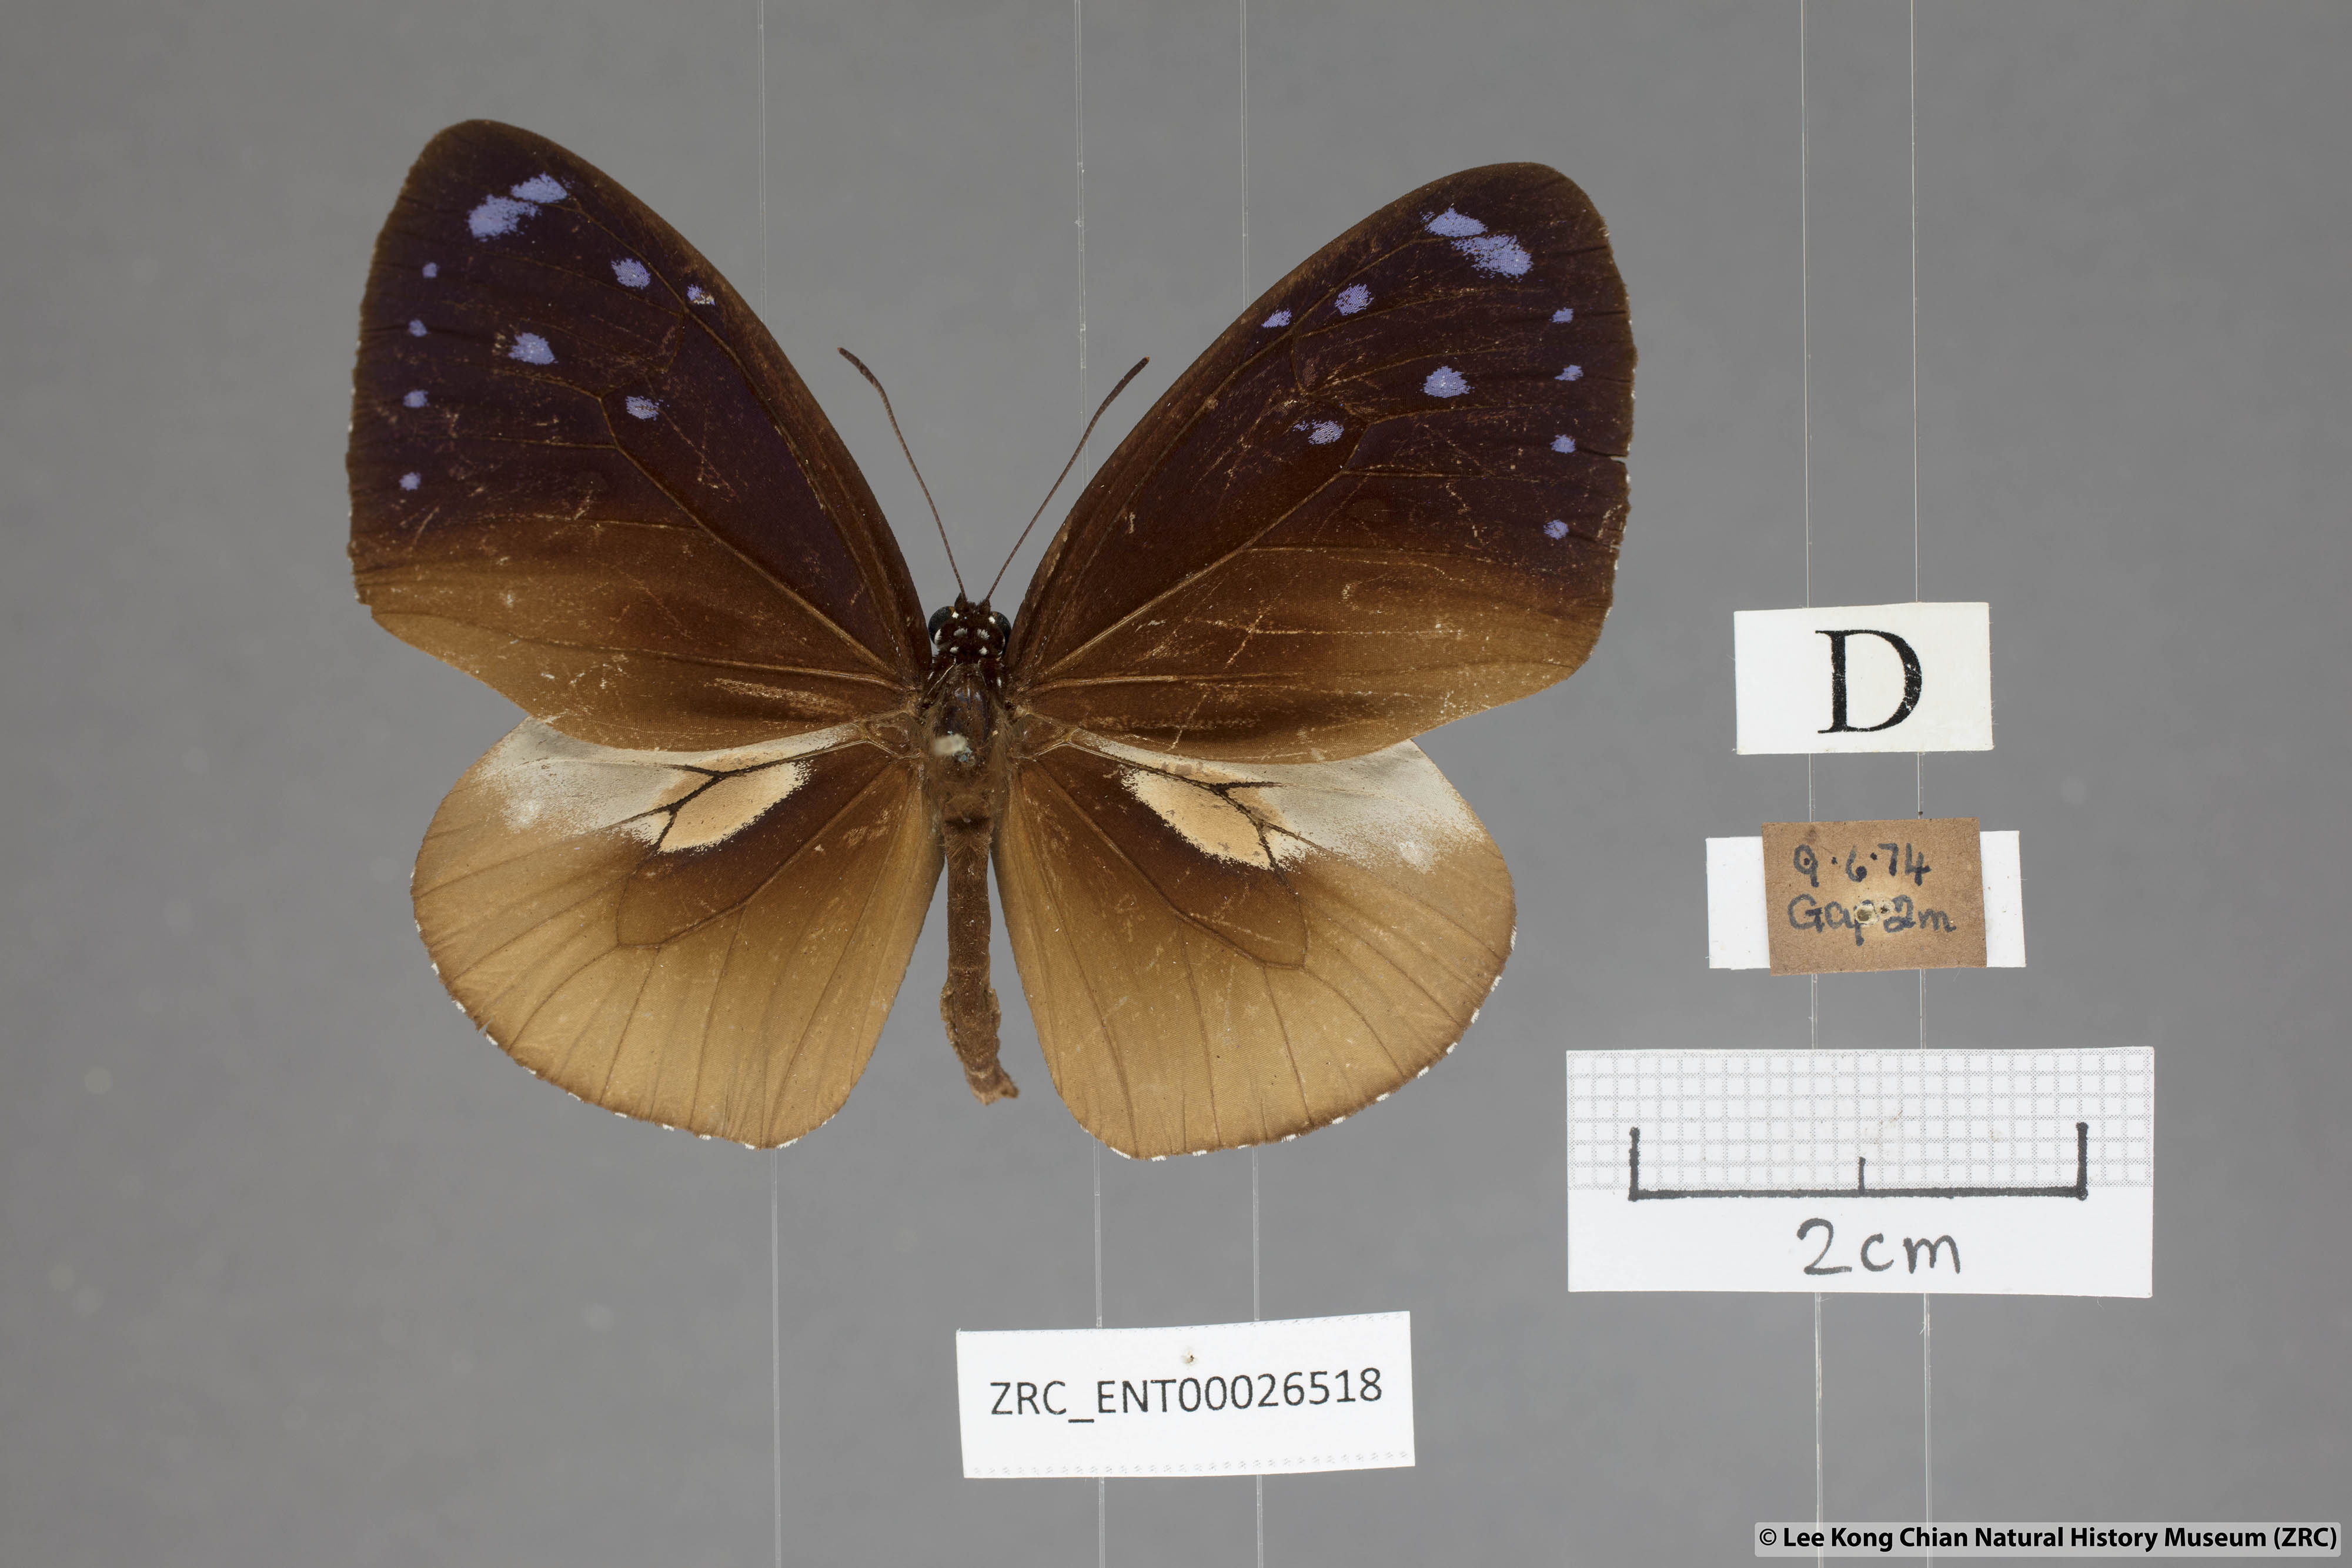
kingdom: Animalia
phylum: Arthropoda
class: Insecta
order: Lepidoptera
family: Nymphalidae
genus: Euploea
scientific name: Euploea tulliolus
